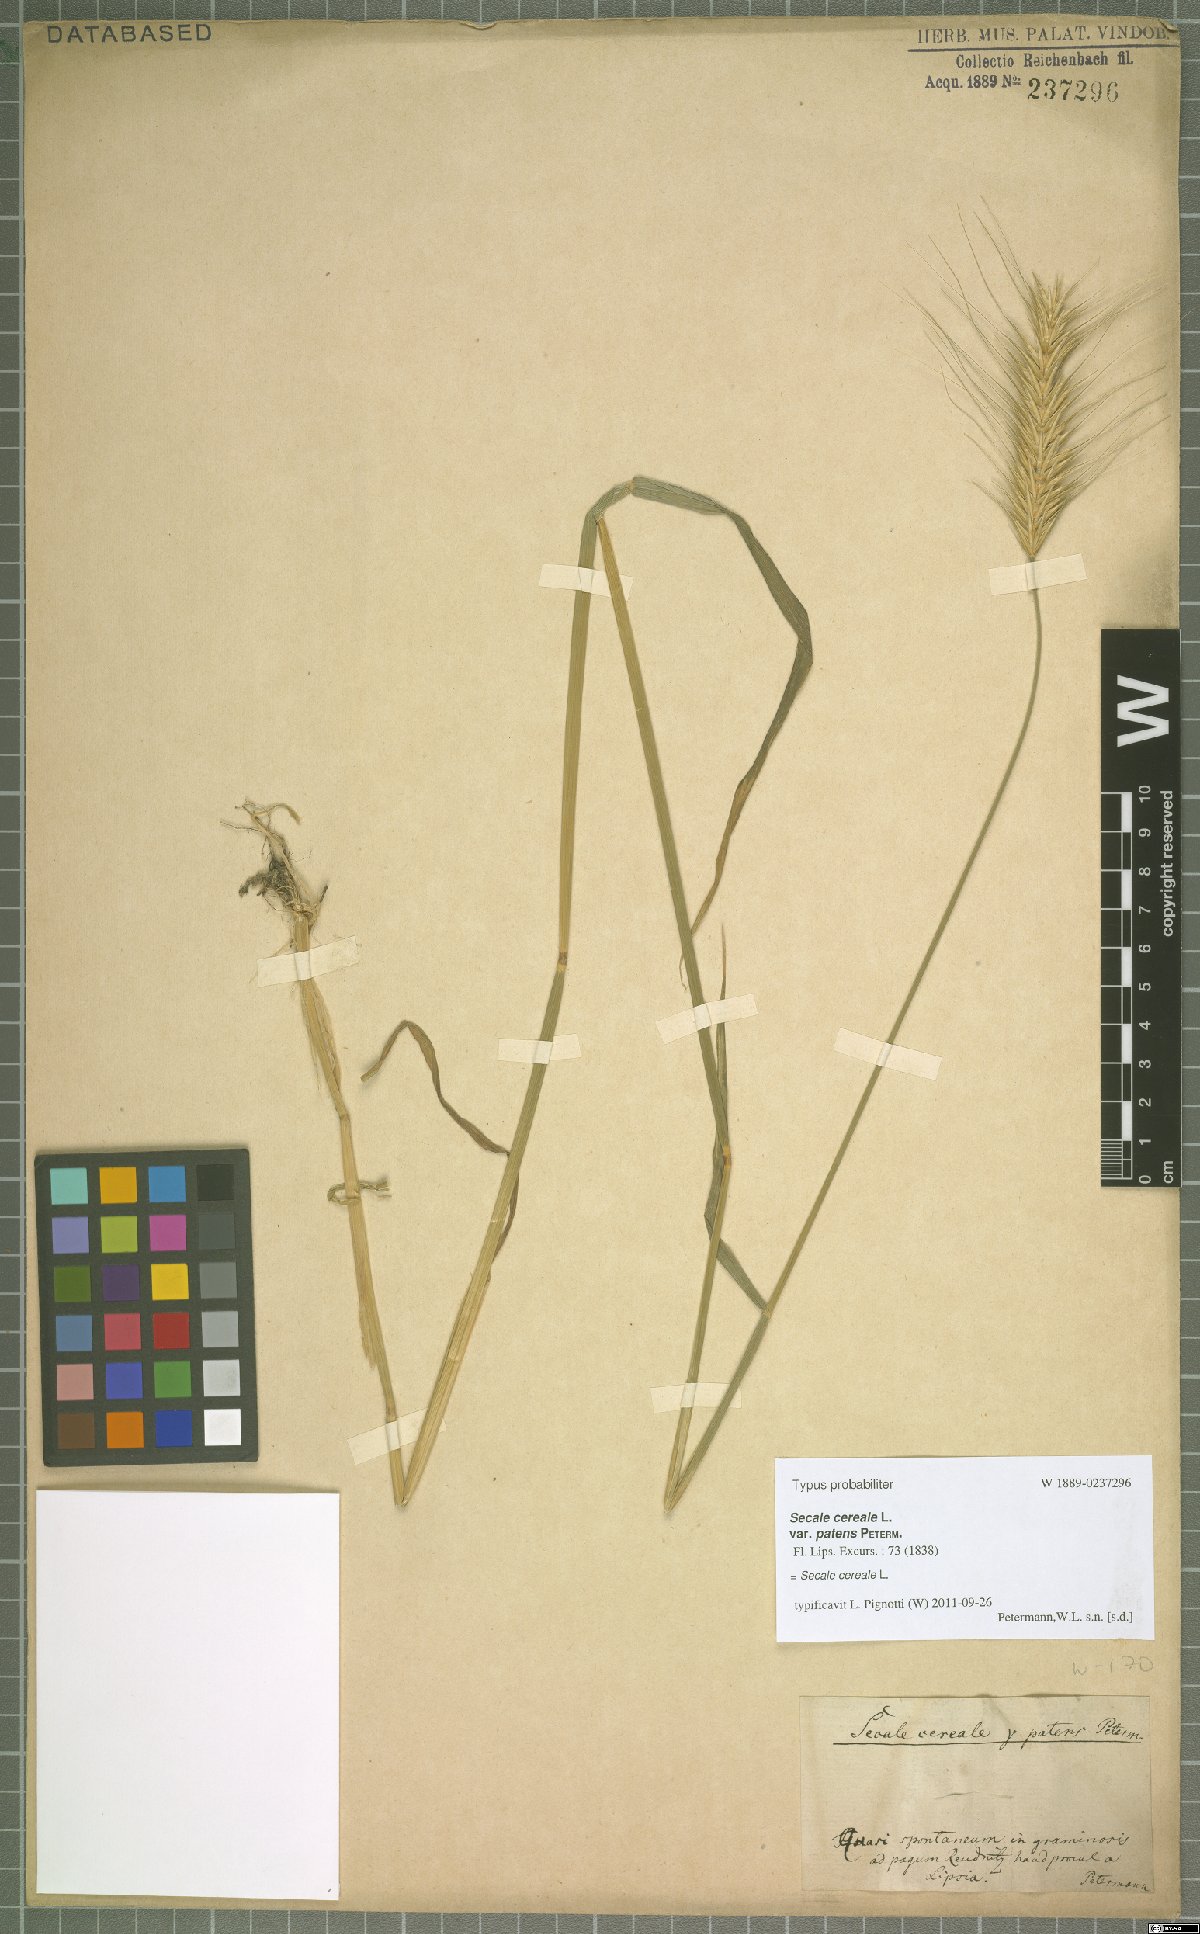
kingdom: Plantae
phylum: Tracheophyta
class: Liliopsida
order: Poales
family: Poaceae
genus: Secale
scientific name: Secale cereale
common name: Rye
